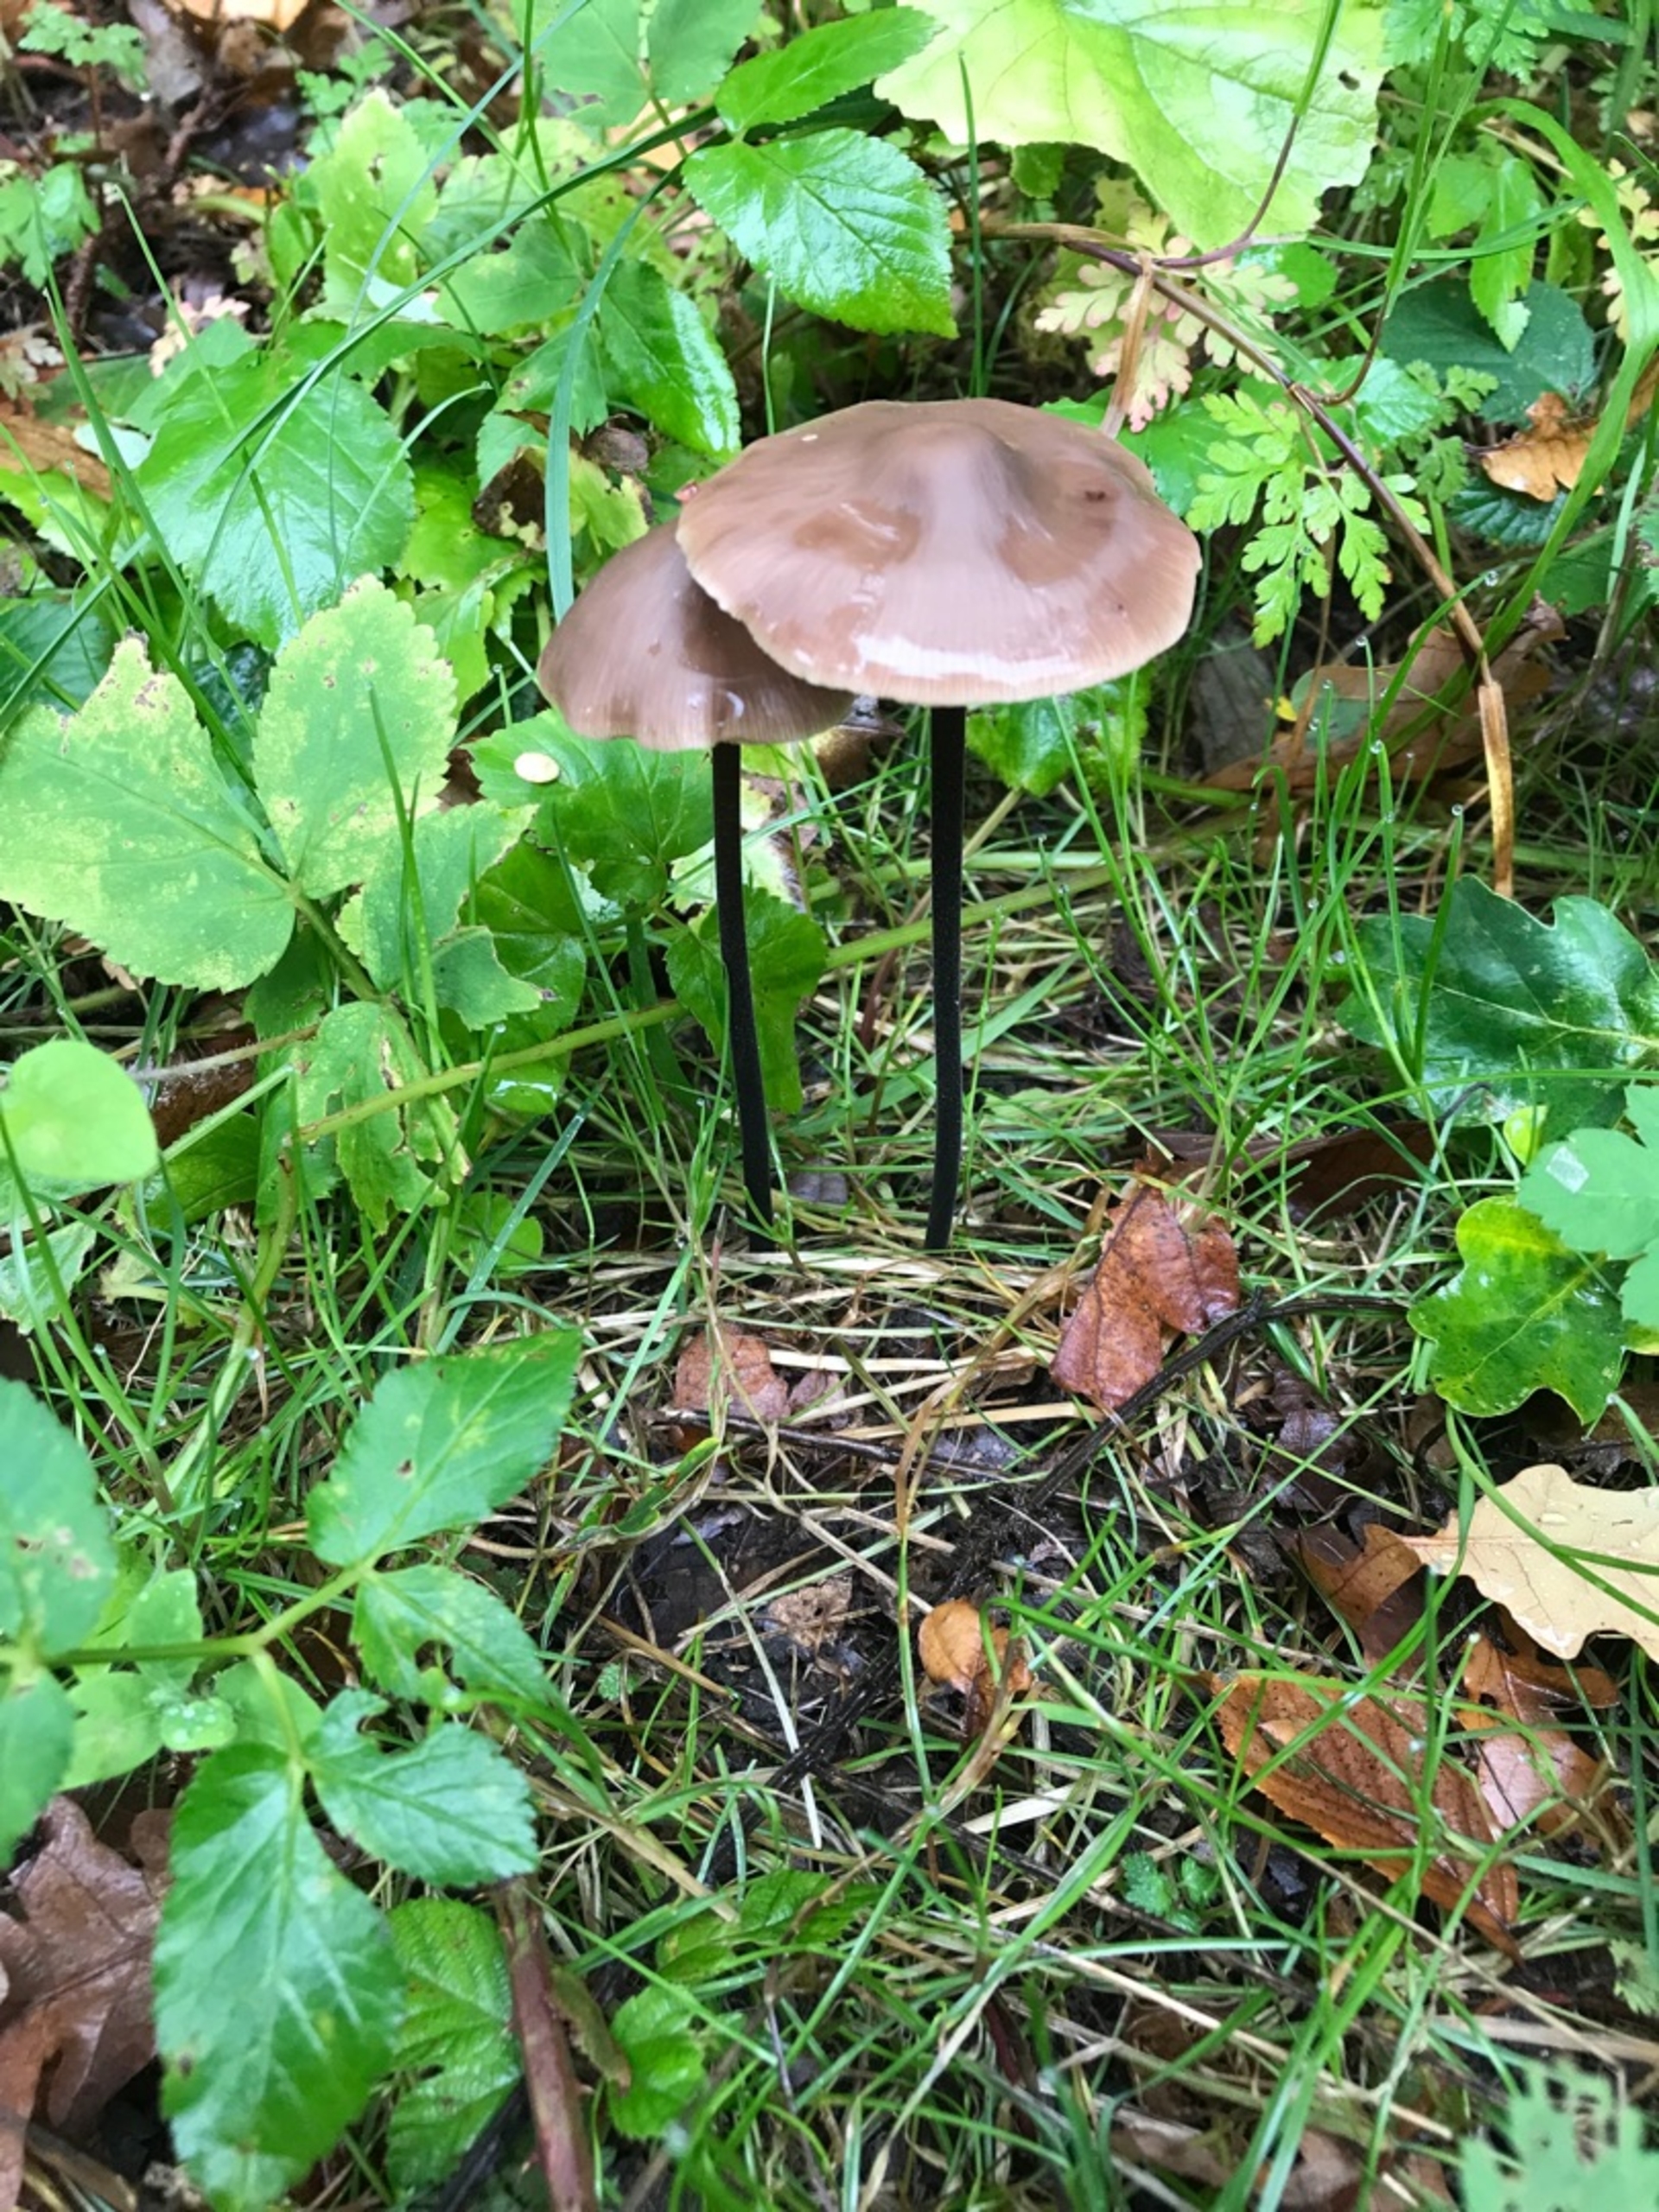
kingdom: Fungi
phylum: Basidiomycota
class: Agaricomycetes
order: Agaricales
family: Omphalotaceae
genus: Mycetinis
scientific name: Mycetinis alliaceus
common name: Stor løghat
